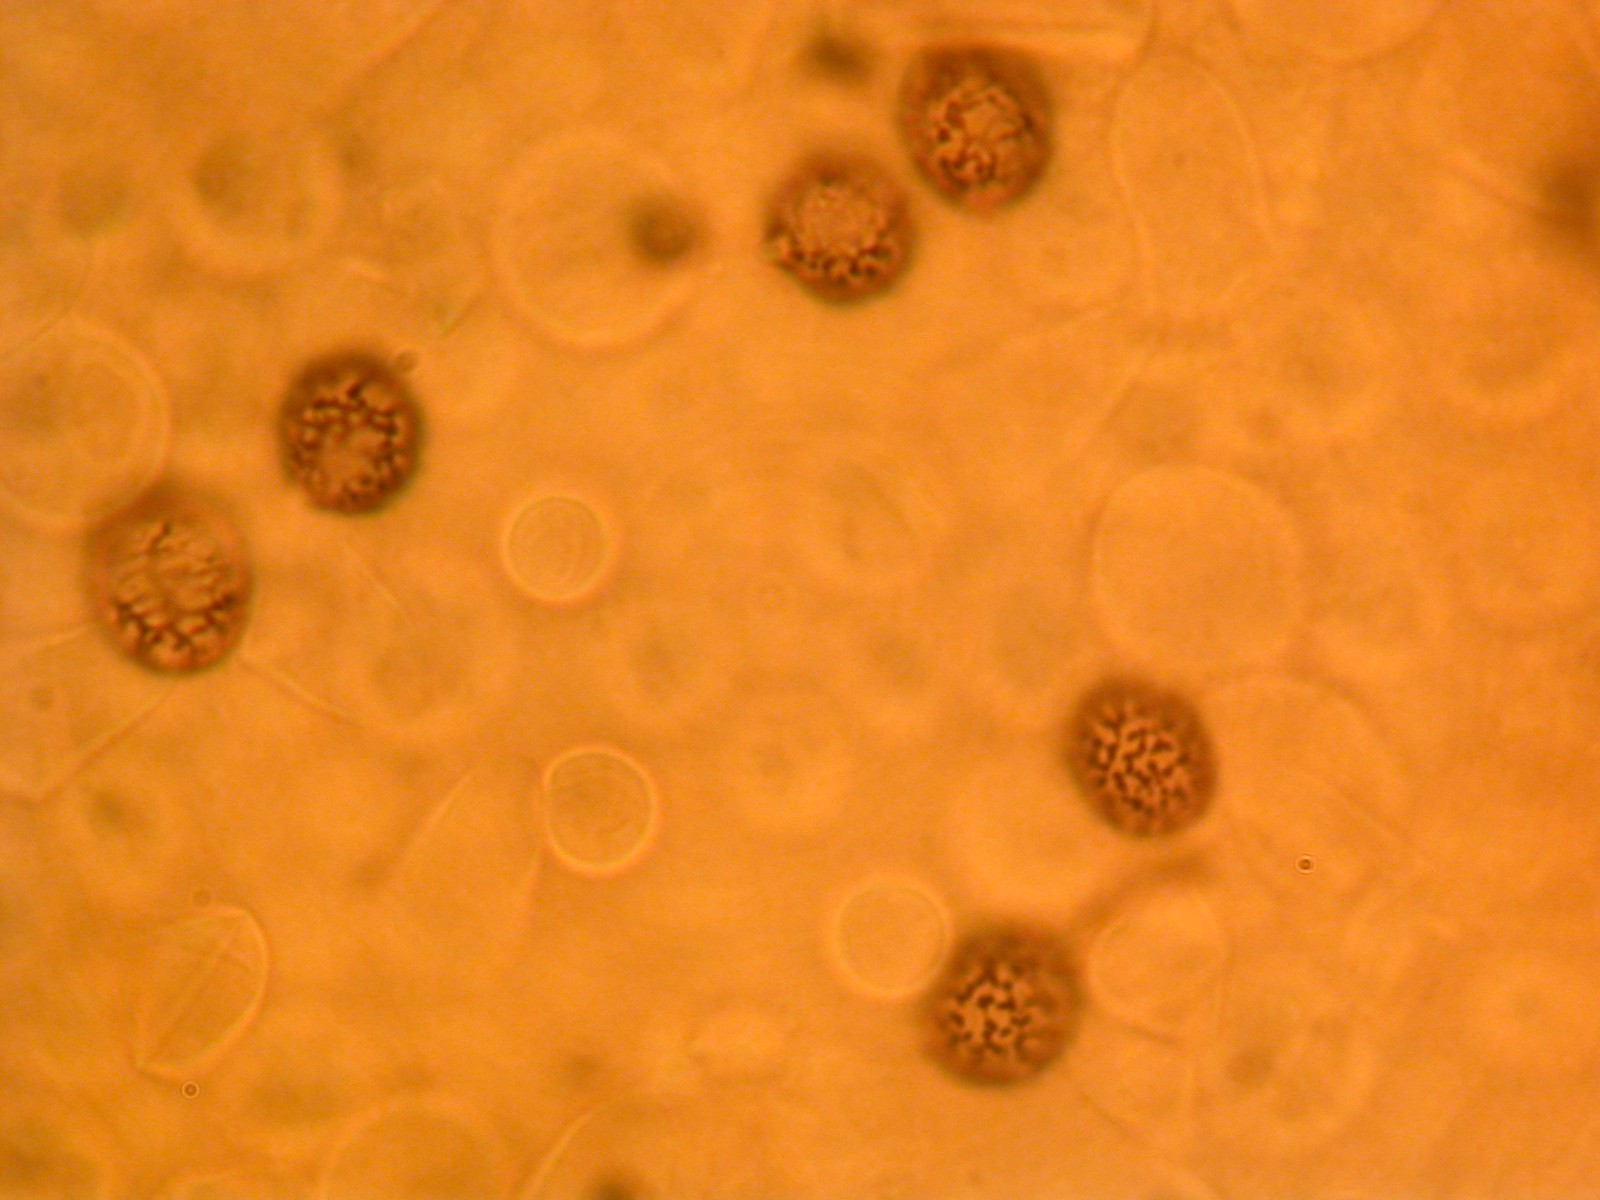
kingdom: Fungi
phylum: Basidiomycota
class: Agaricomycetes
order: Russulales
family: Russulaceae
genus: Russula
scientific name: Russula rhodopus
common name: lak-skørhat
